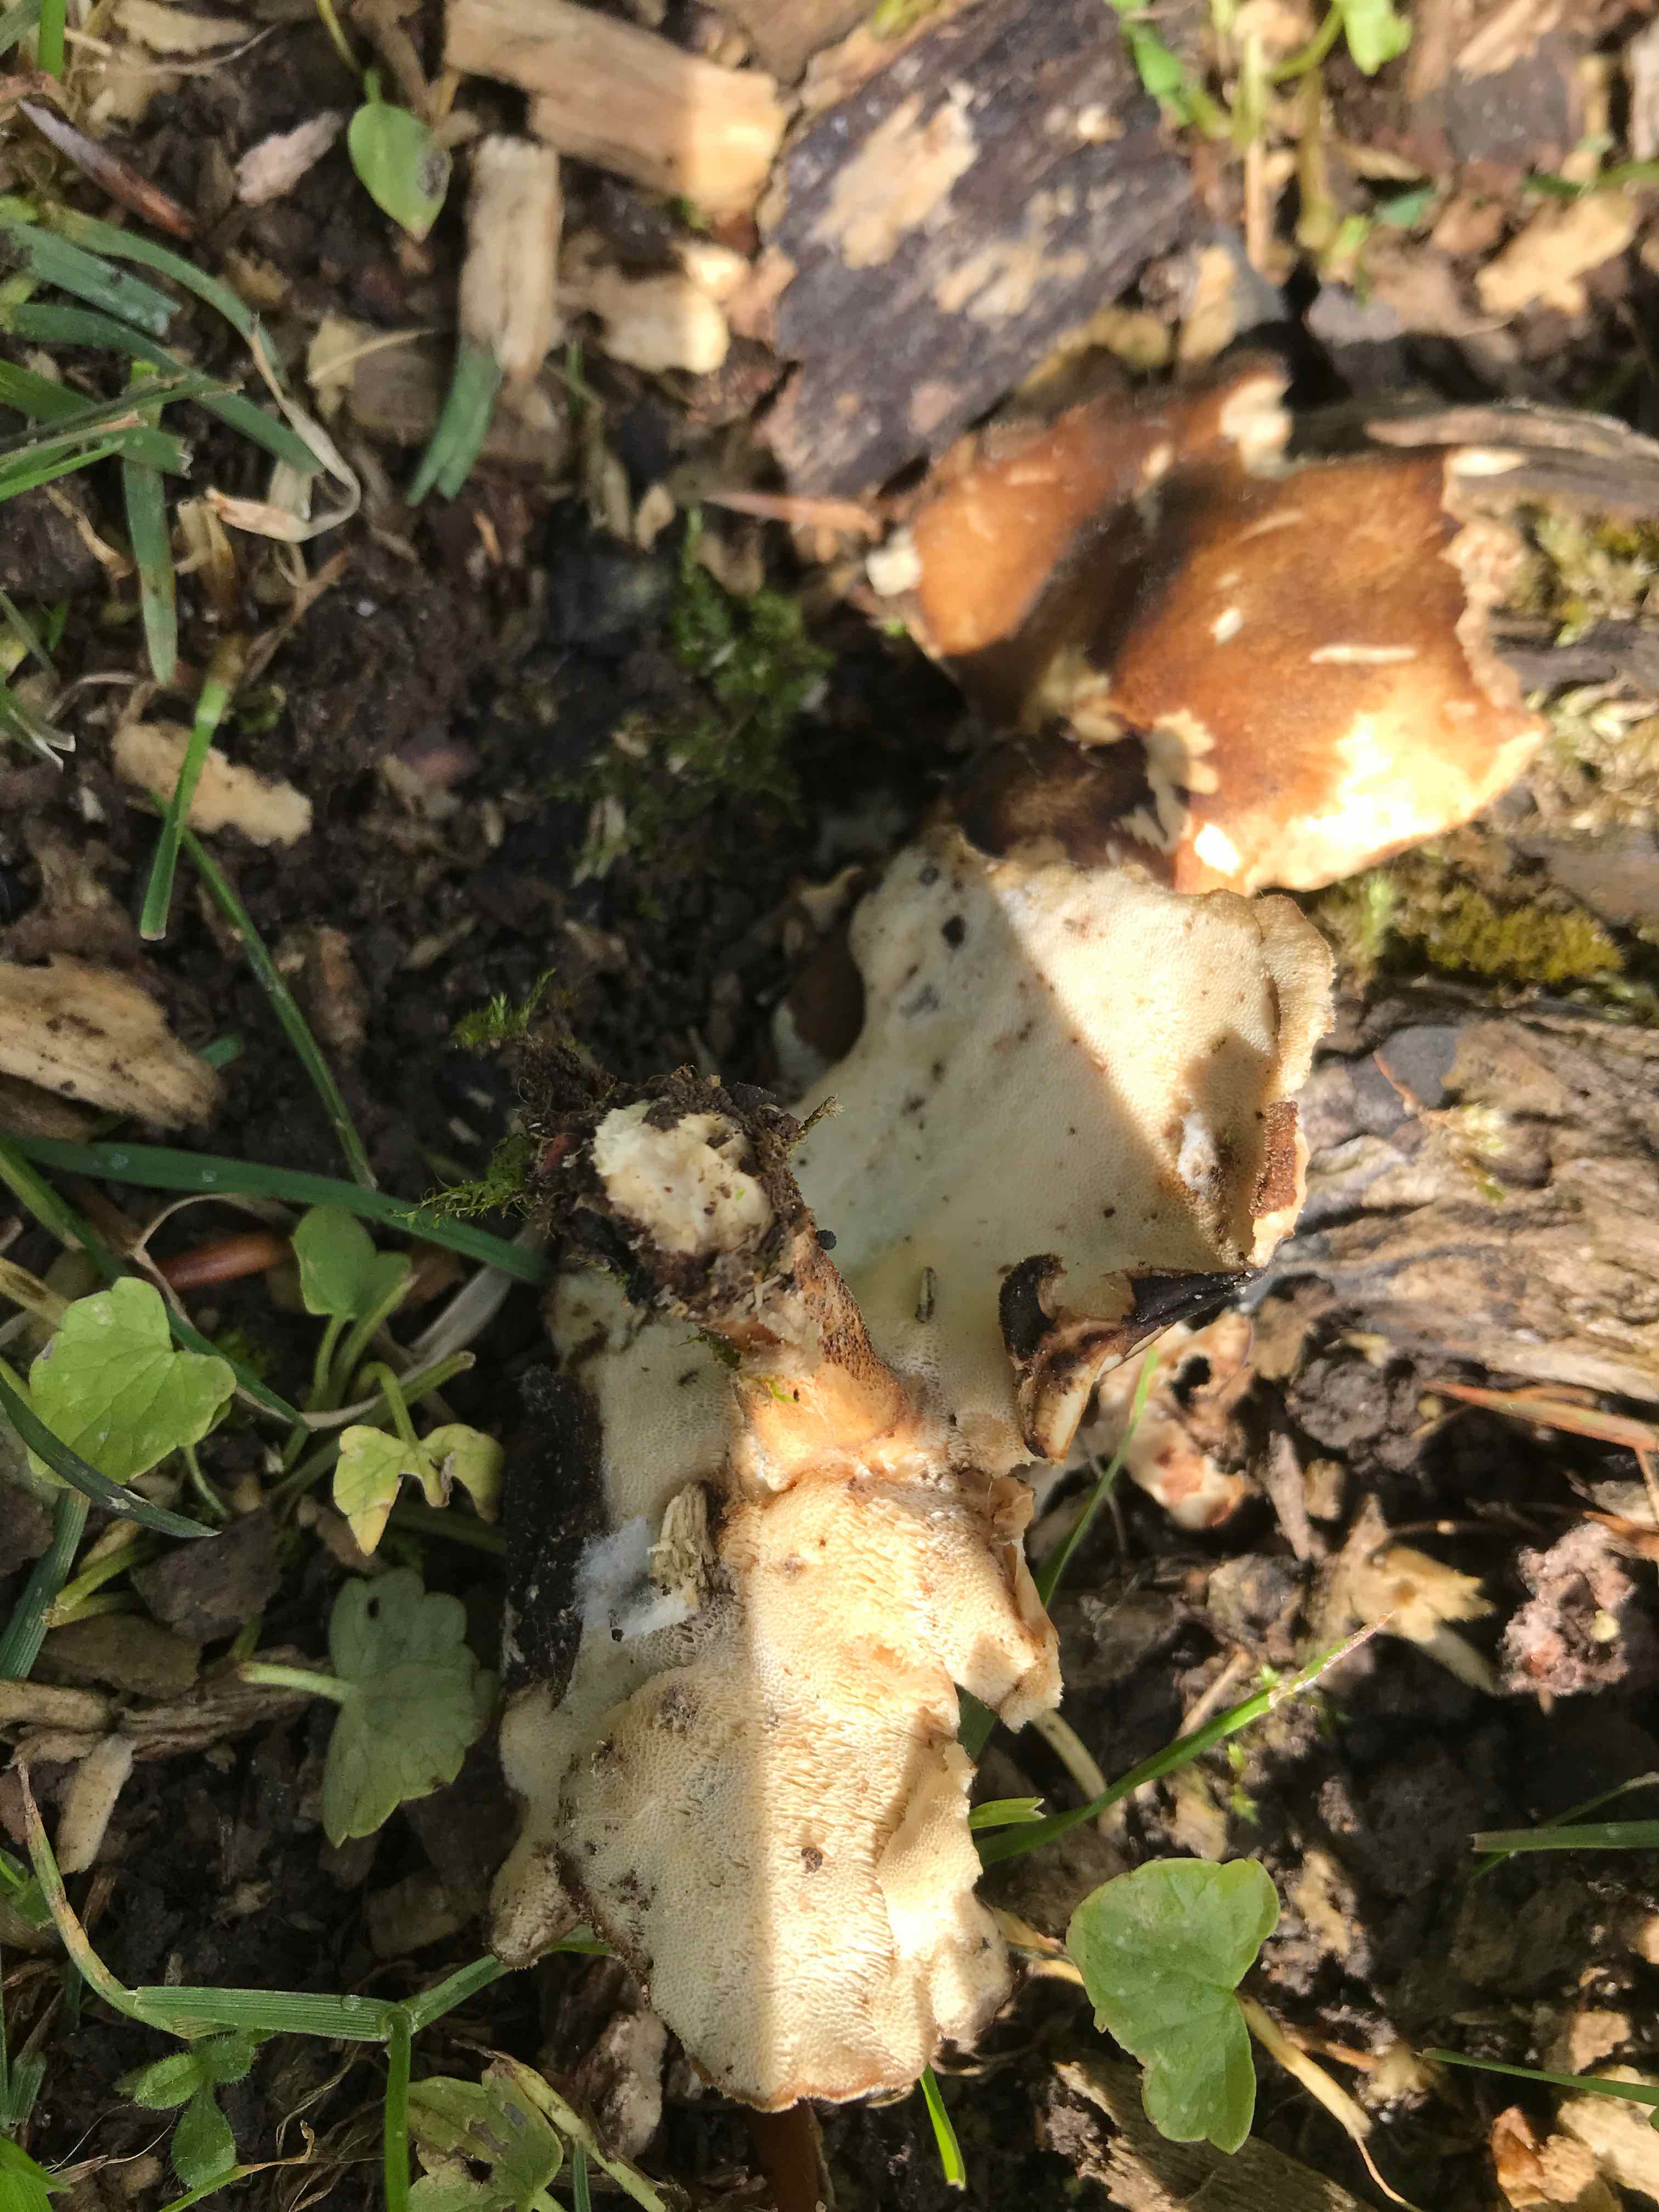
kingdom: Fungi
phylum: Basidiomycota
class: Agaricomycetes
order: Polyporales
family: Polyporaceae
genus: Cerioporus
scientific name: Cerioporus varius
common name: foranderlig stilkporesvamp
